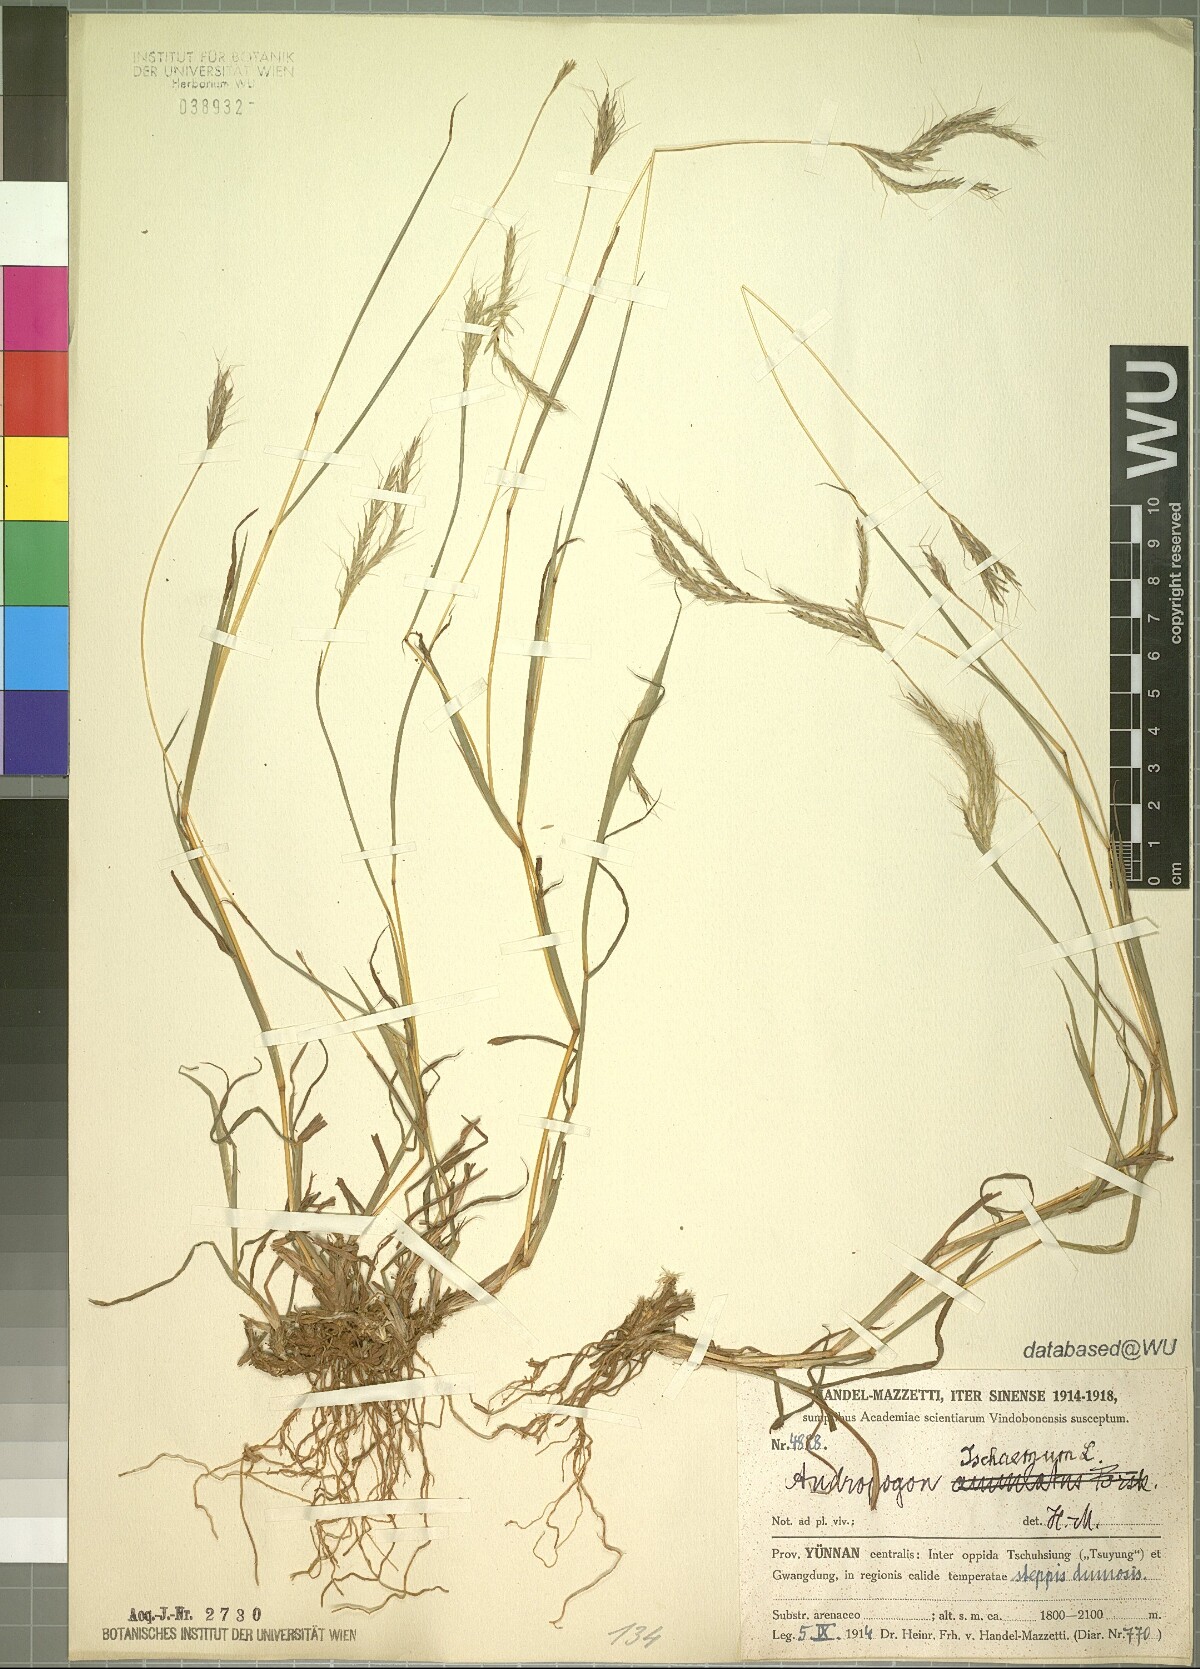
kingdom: Plantae
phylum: Tracheophyta
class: Liliopsida
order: Poales
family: Poaceae
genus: Bothriochloa
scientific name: Bothriochloa ischaemum
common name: Yellow bluestem
